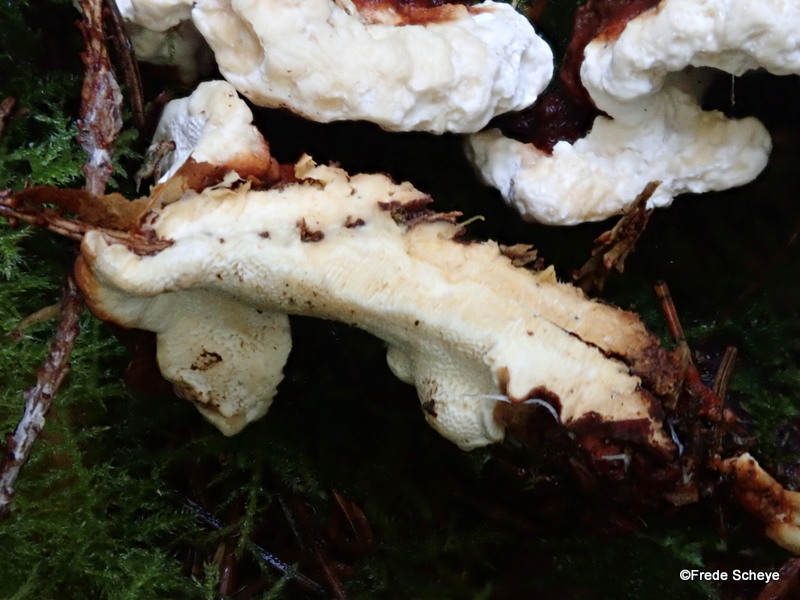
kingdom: Fungi
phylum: Basidiomycota
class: Agaricomycetes
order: Russulales
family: Bondarzewiaceae
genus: Heterobasidion
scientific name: Heterobasidion annosum
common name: almindelig rodfordærver
